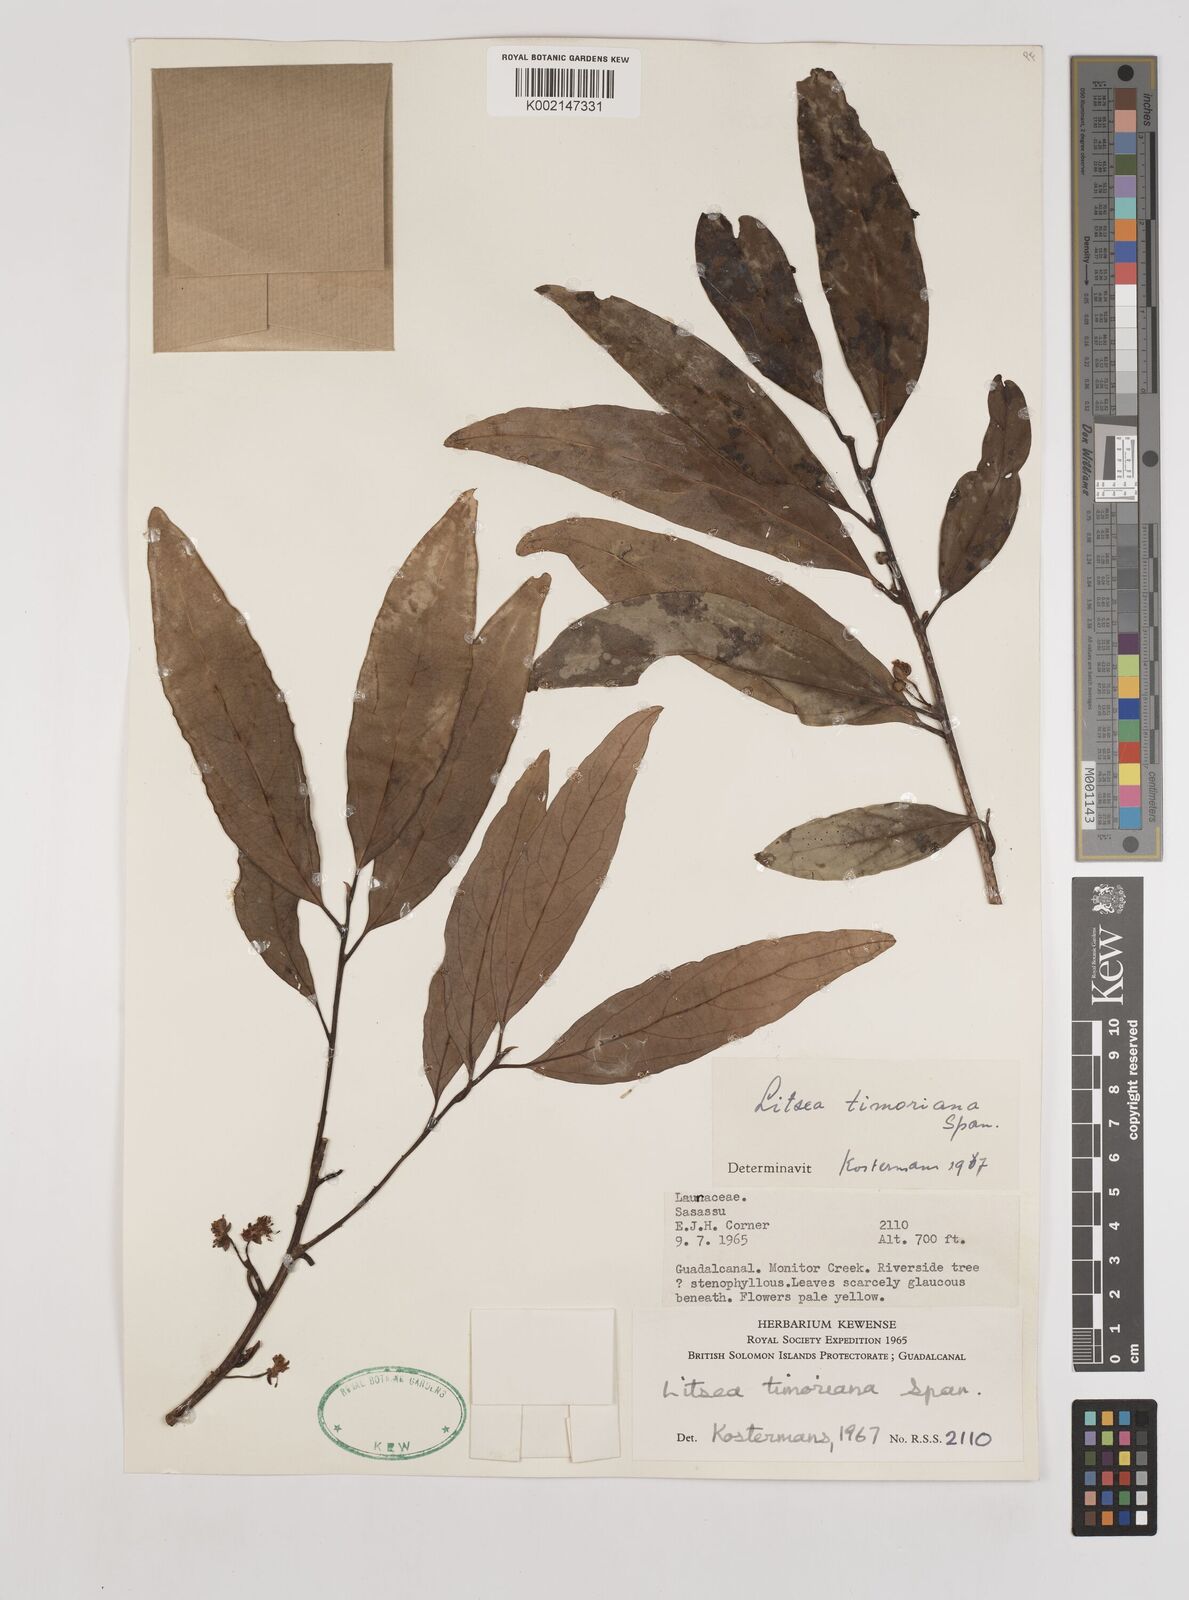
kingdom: Plantae
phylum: Tracheophyta
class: Magnoliopsida
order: Laurales
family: Lauraceae
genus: Litsea
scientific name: Litsea timoriana
